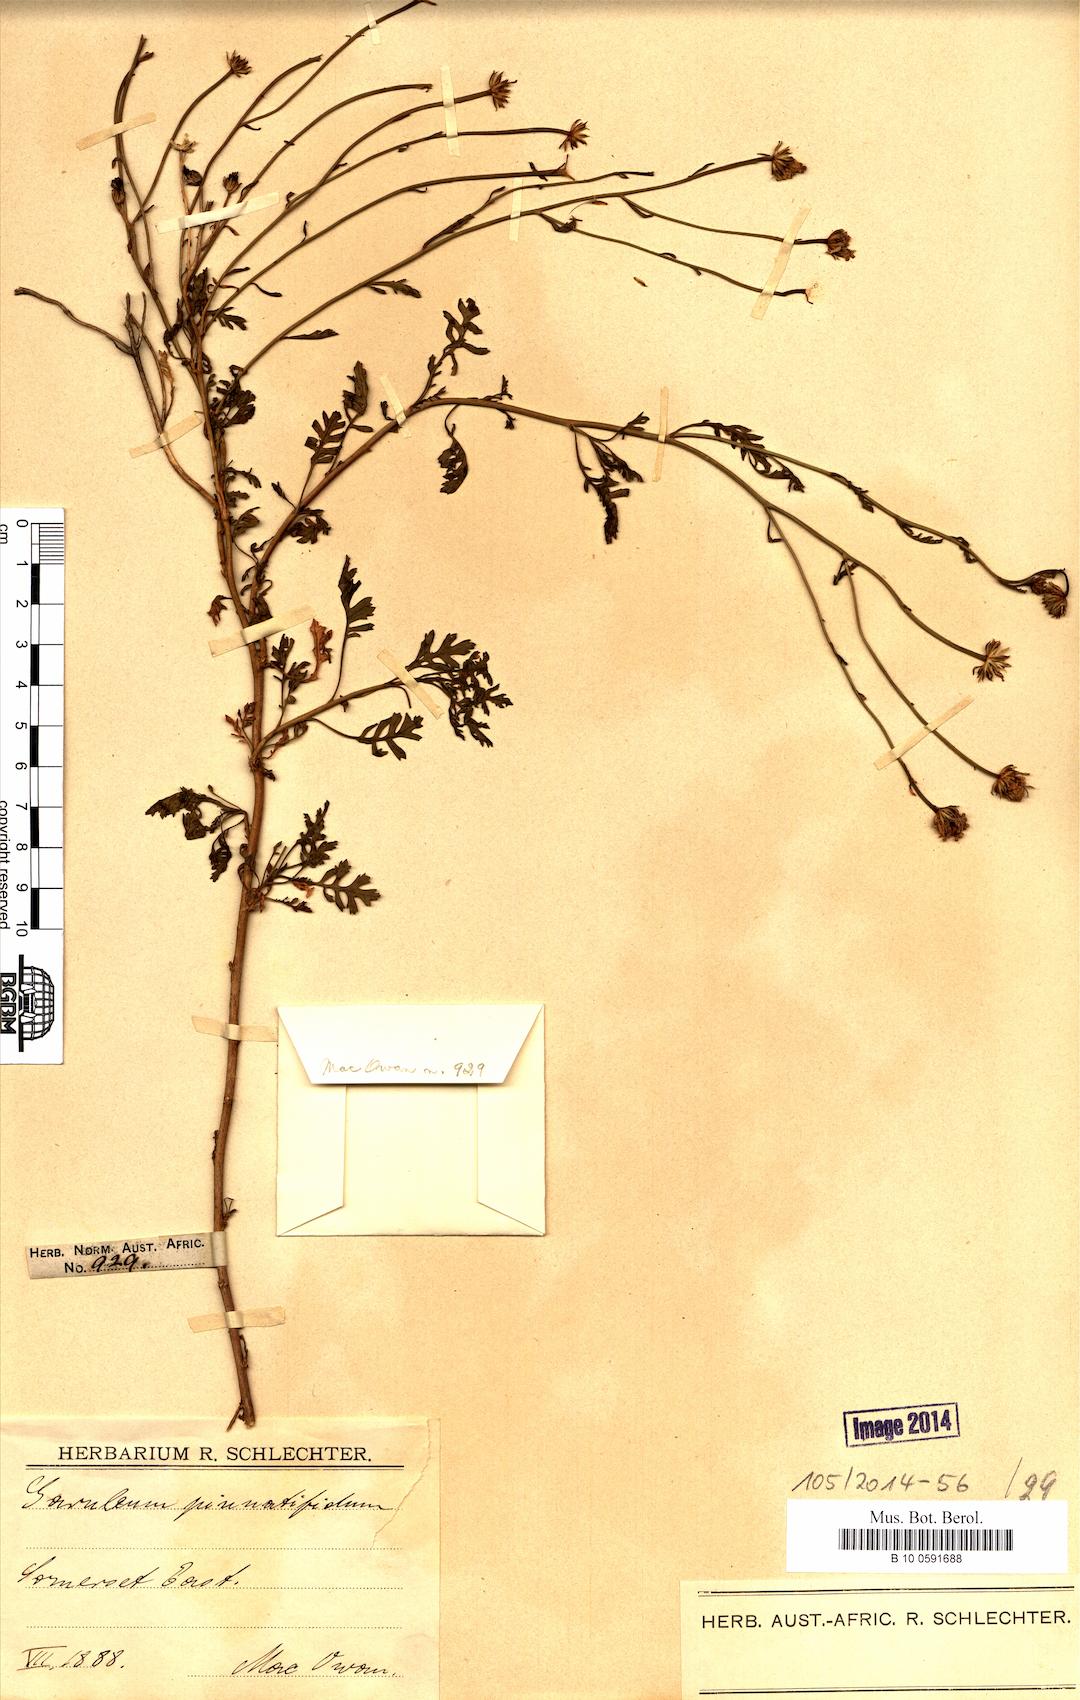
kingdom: Plantae
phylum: Tracheophyta
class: Magnoliopsida
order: Asterales
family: Asteraceae
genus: Garuleum
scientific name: Garuleum pinnatifidum
